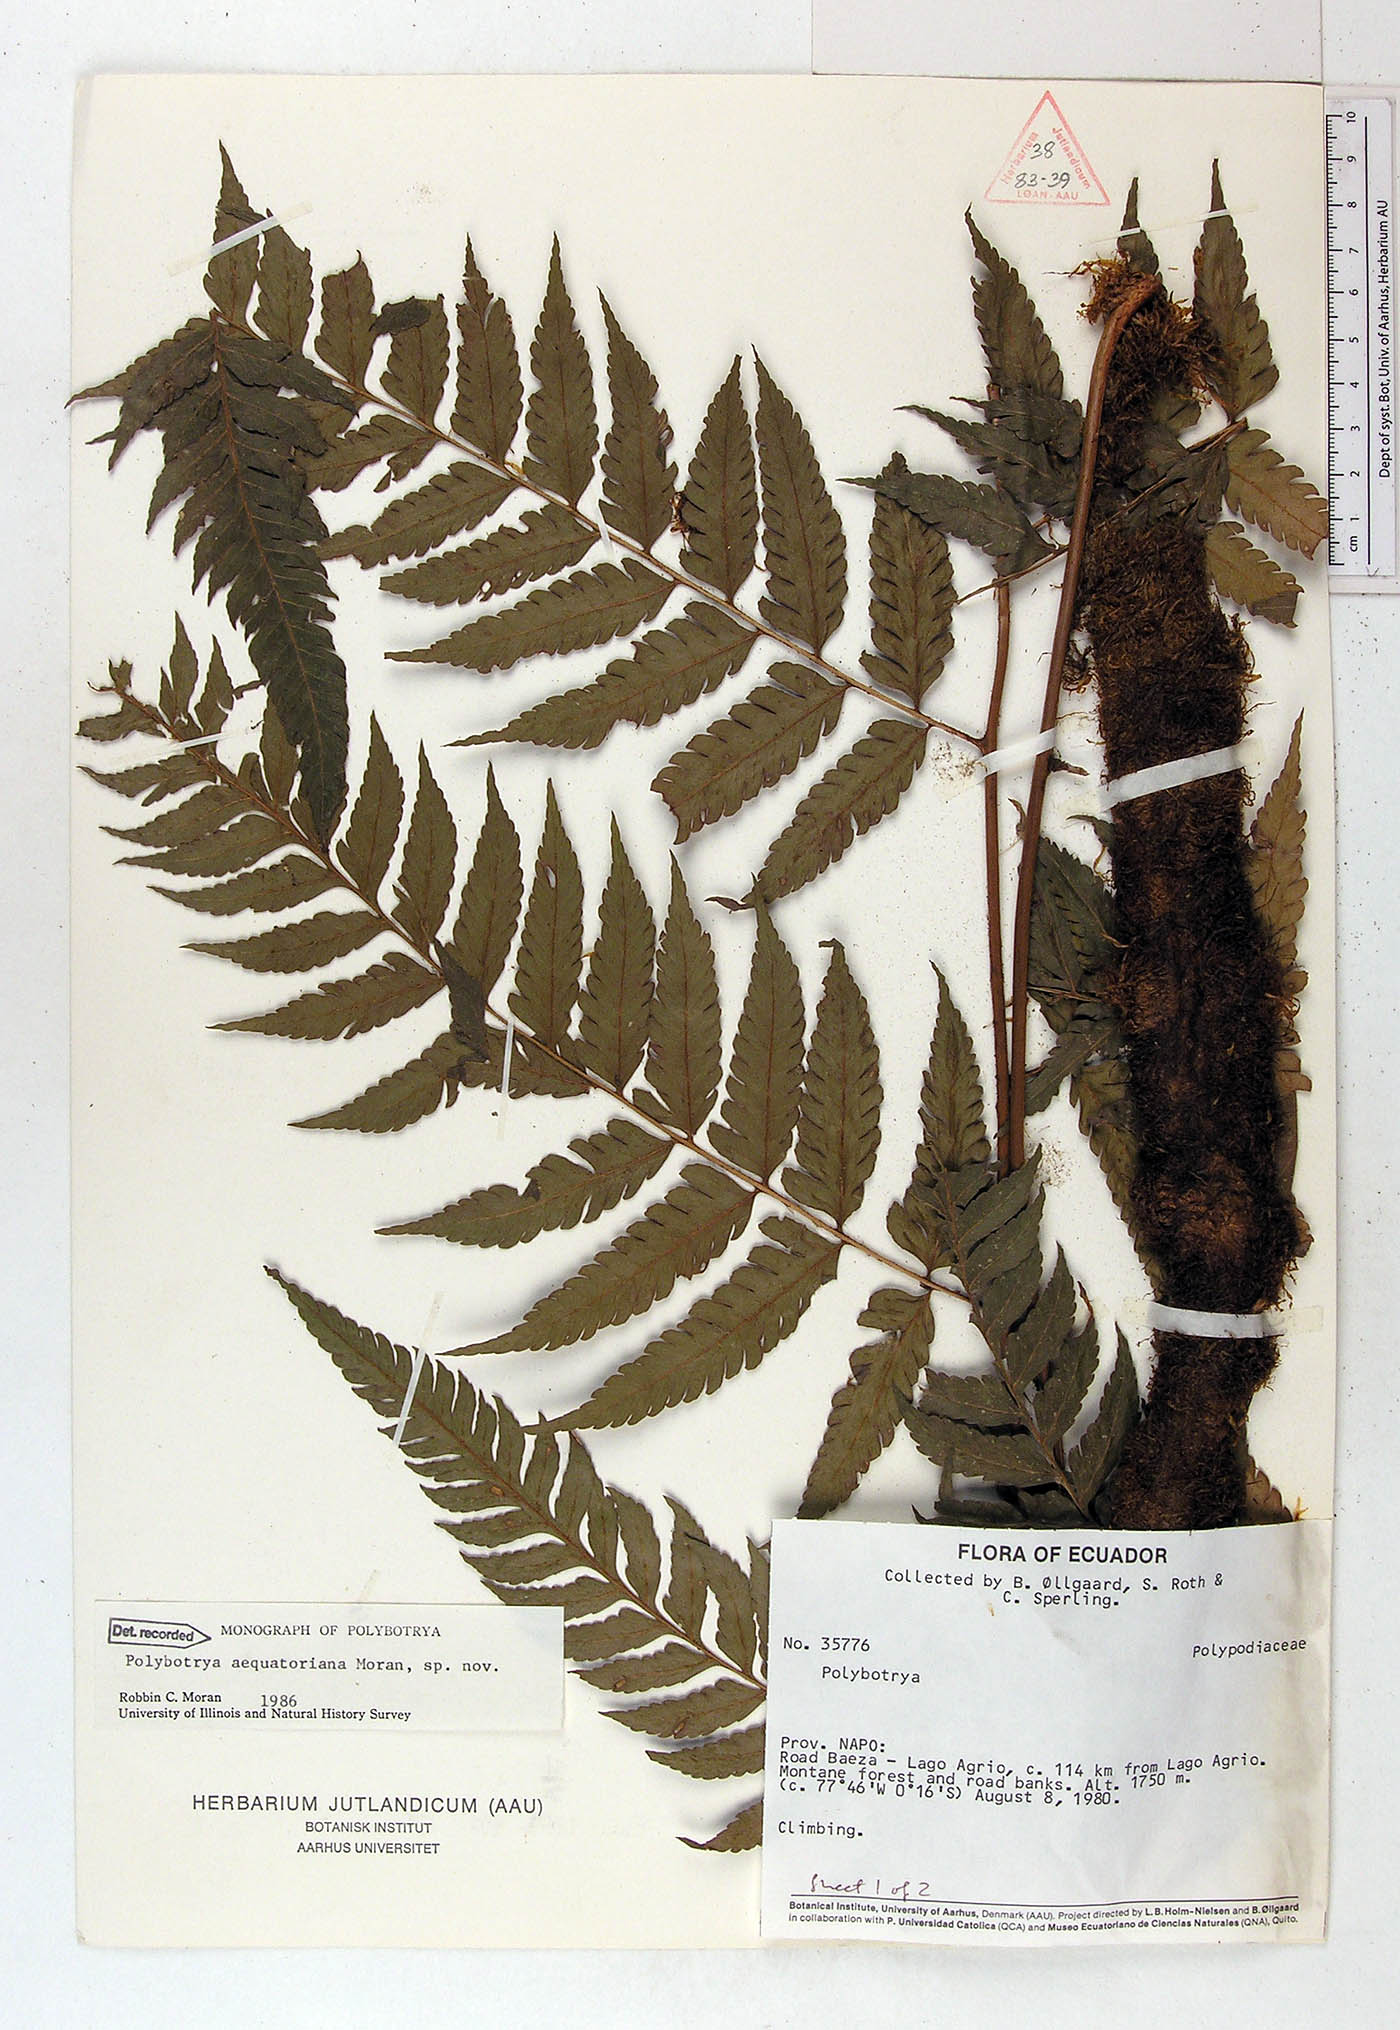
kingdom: Plantae
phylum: Tracheophyta
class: Polypodiopsida
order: Polypodiales
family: Dryopteridaceae
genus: Polybotrya
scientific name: Polybotrya aequatoriana
